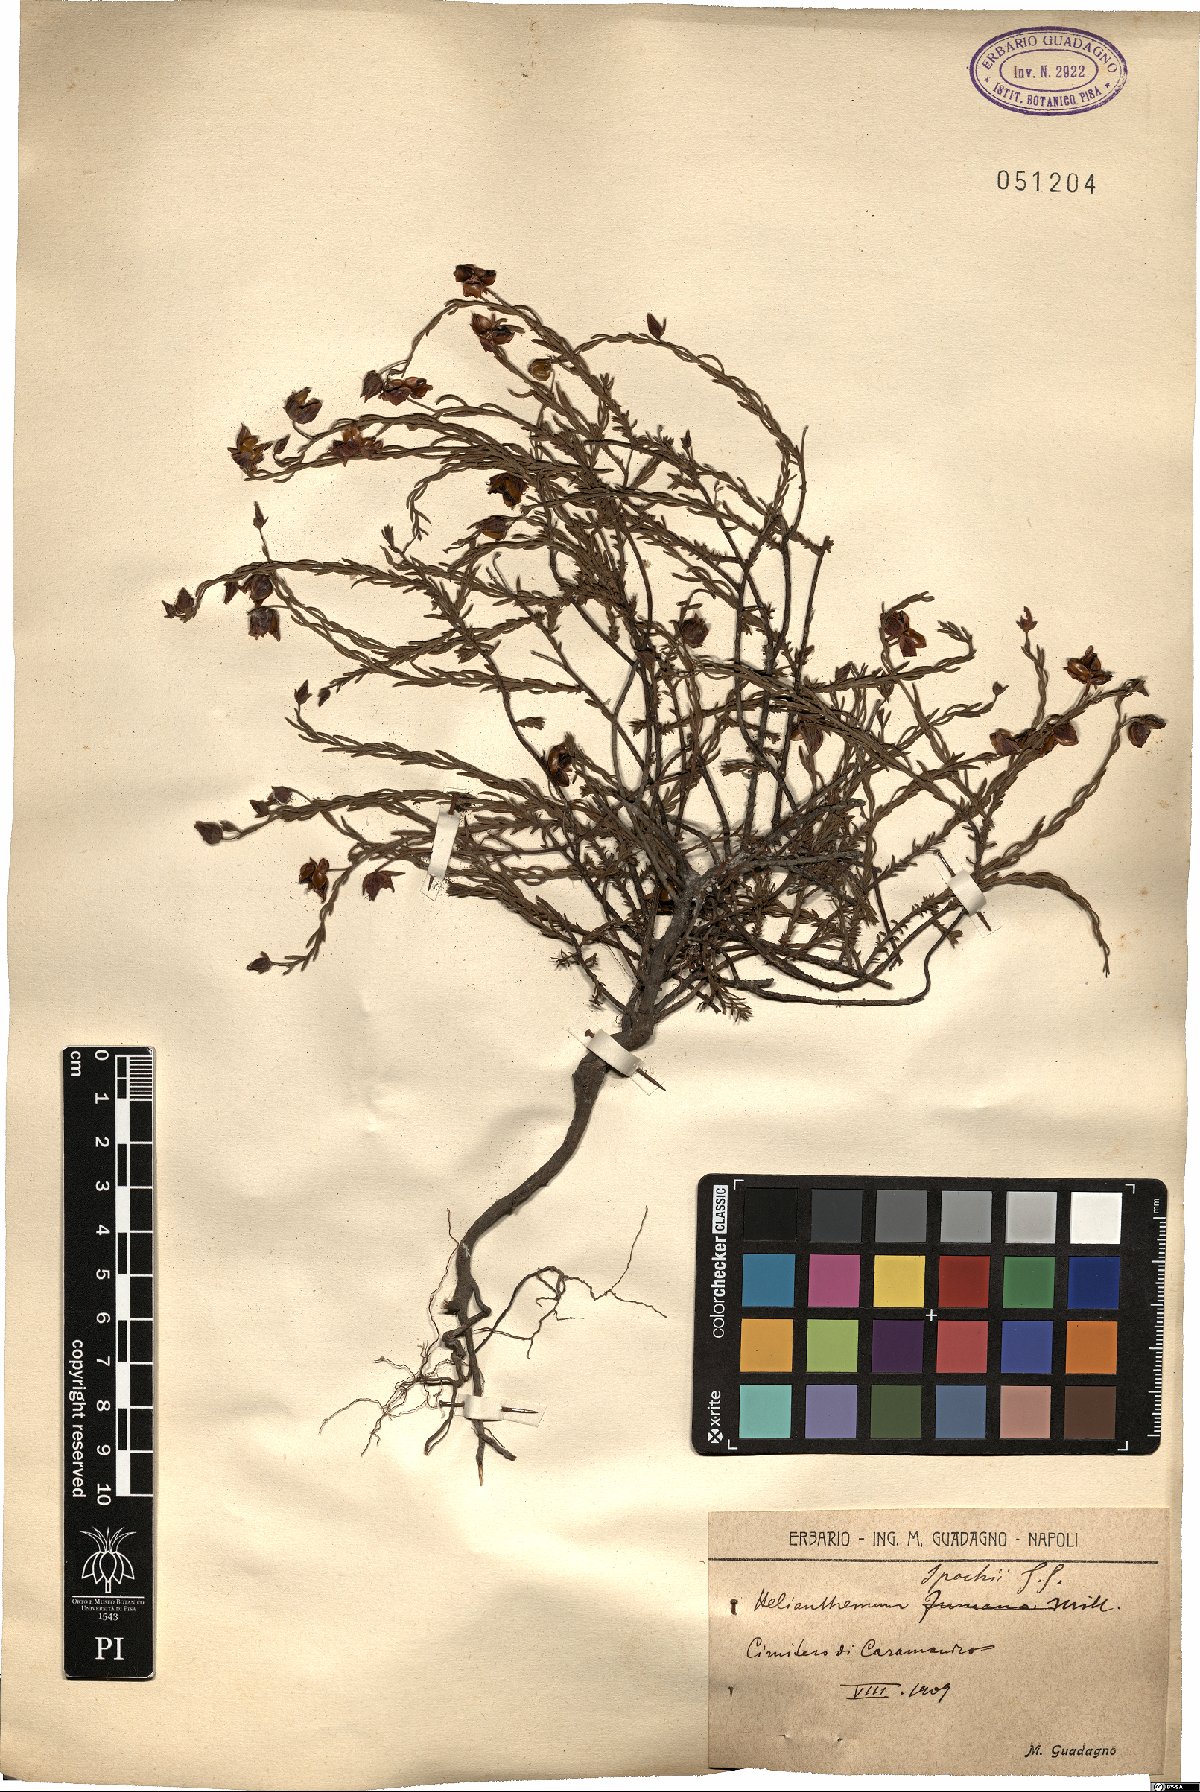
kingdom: Plantae
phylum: Tracheophyta
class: Magnoliopsida
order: Malvales
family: Cistaceae
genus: Fumana
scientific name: Fumana ericifolia
